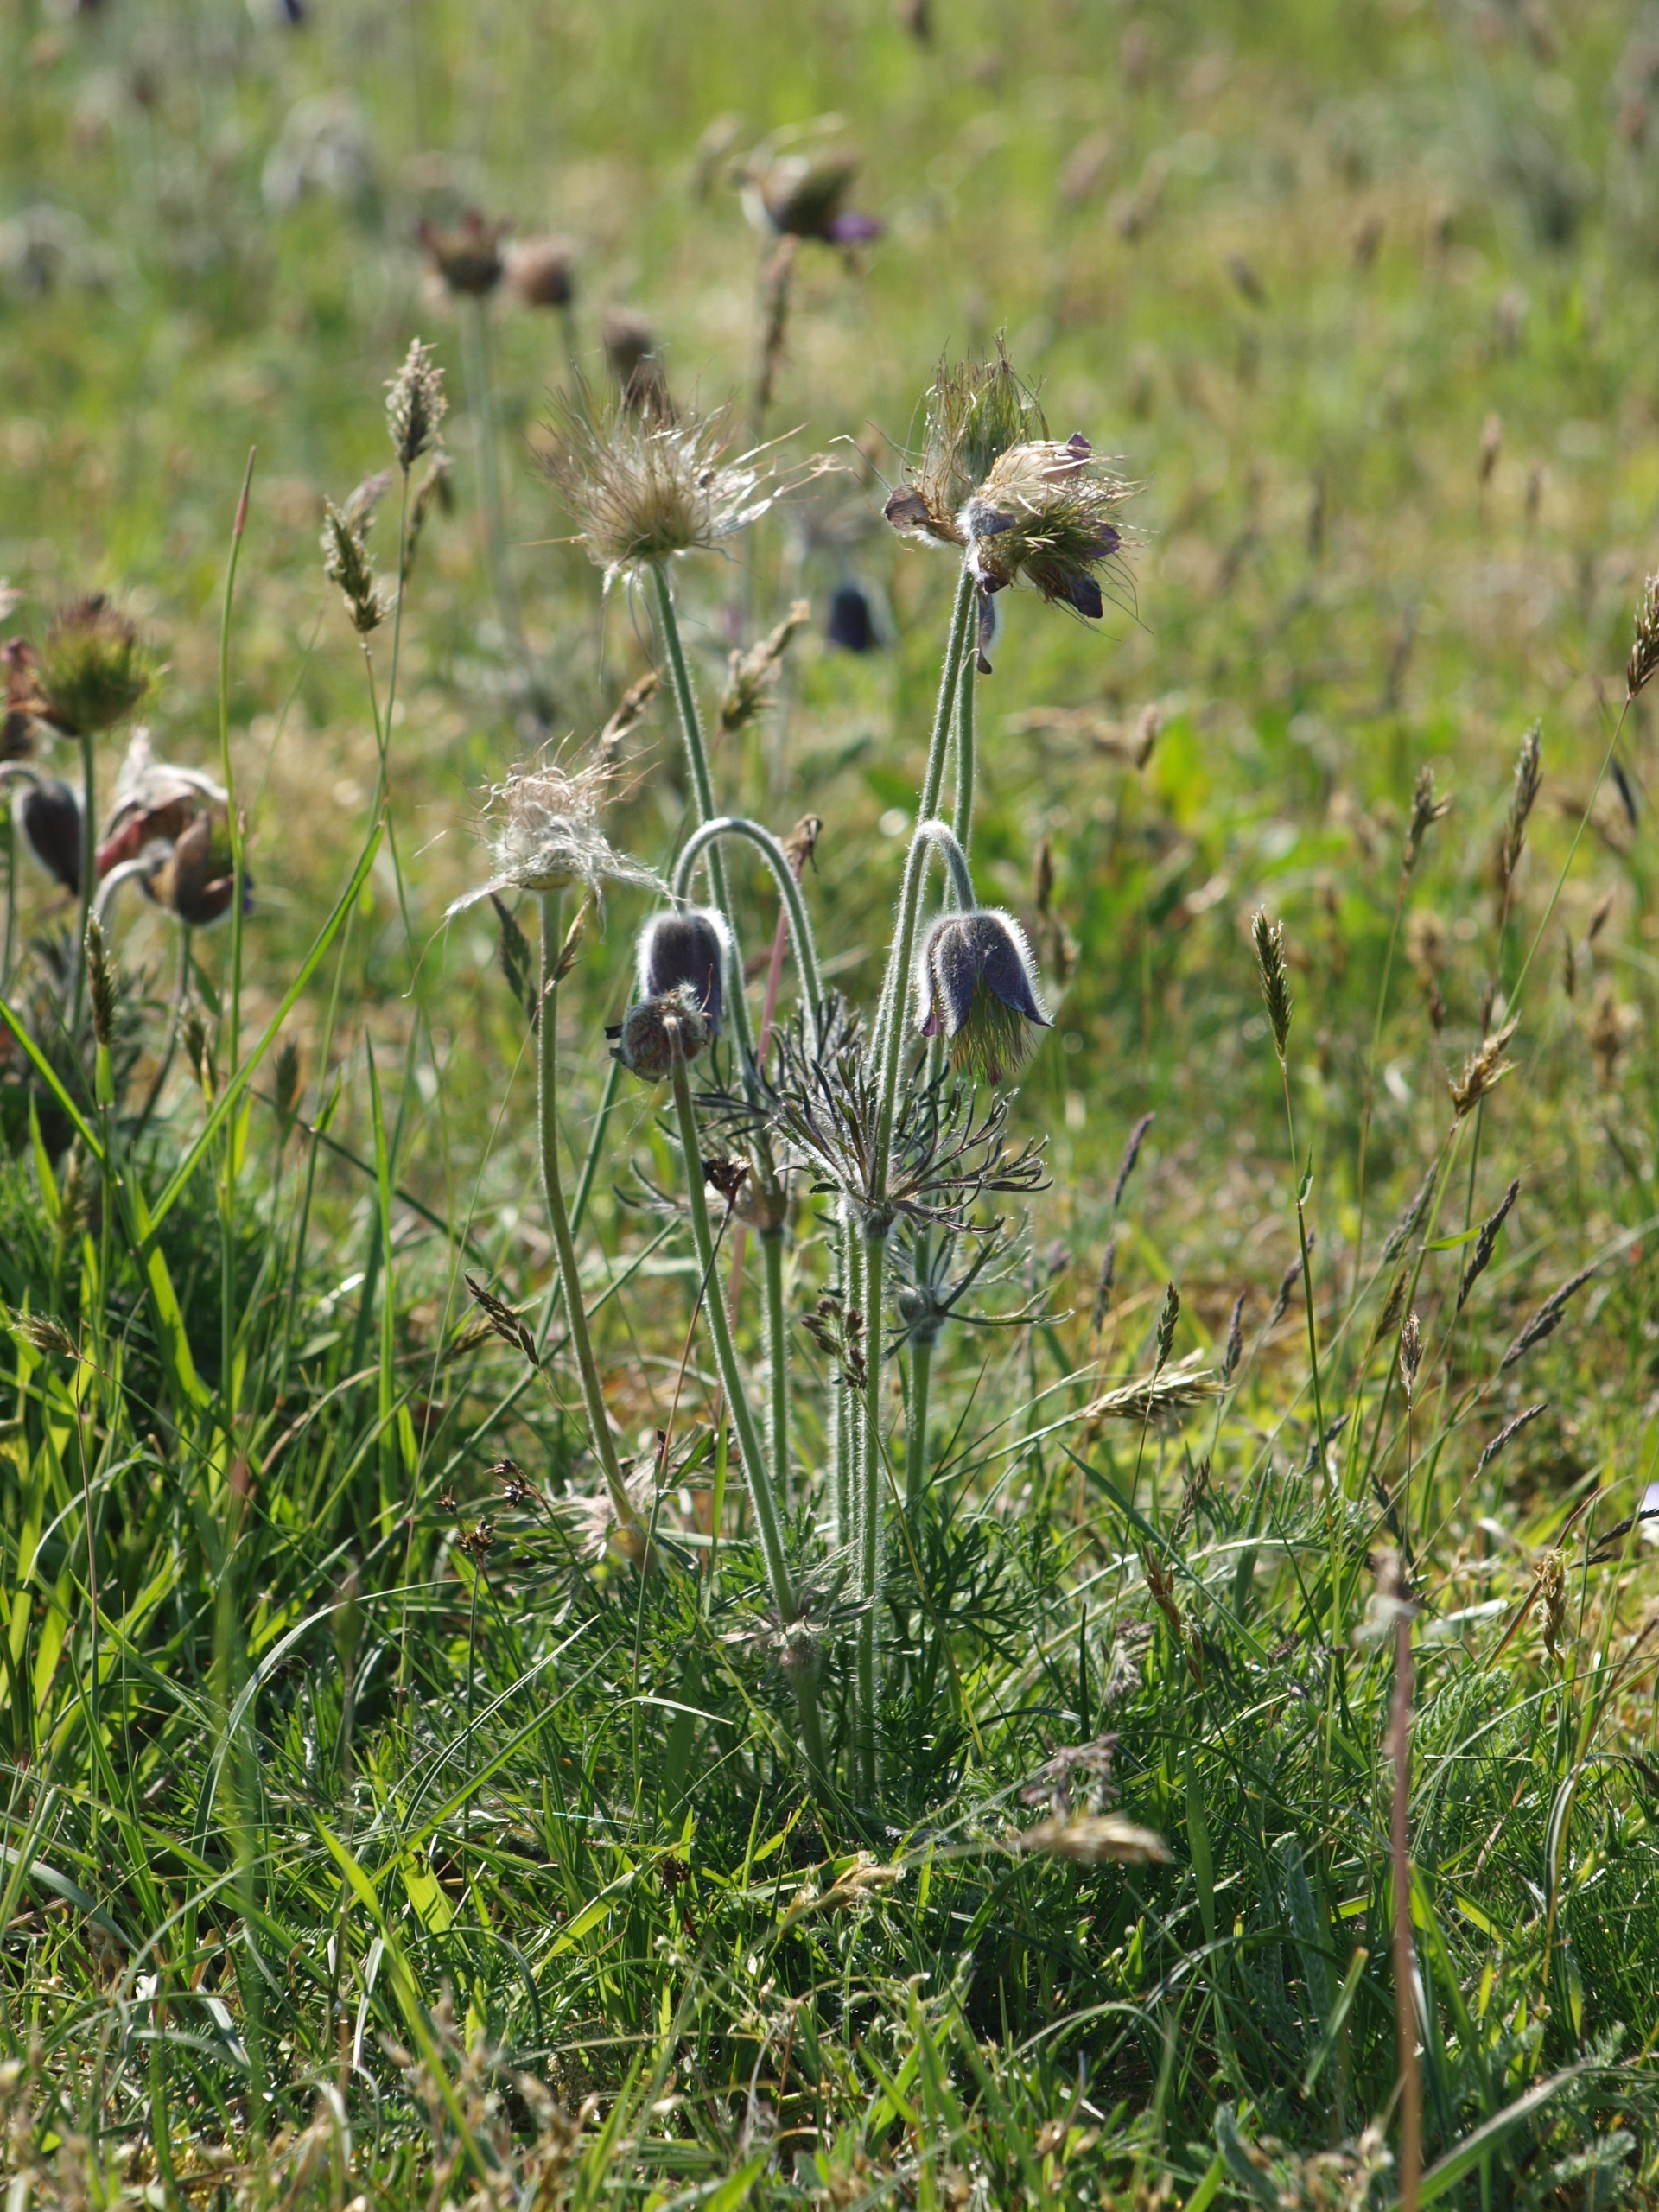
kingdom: Plantae
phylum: Tracheophyta
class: Magnoliopsida
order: Ranunculales
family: Ranunculaceae
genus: Pulsatilla
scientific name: Pulsatilla pratensis
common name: Nikkende kobjælde
